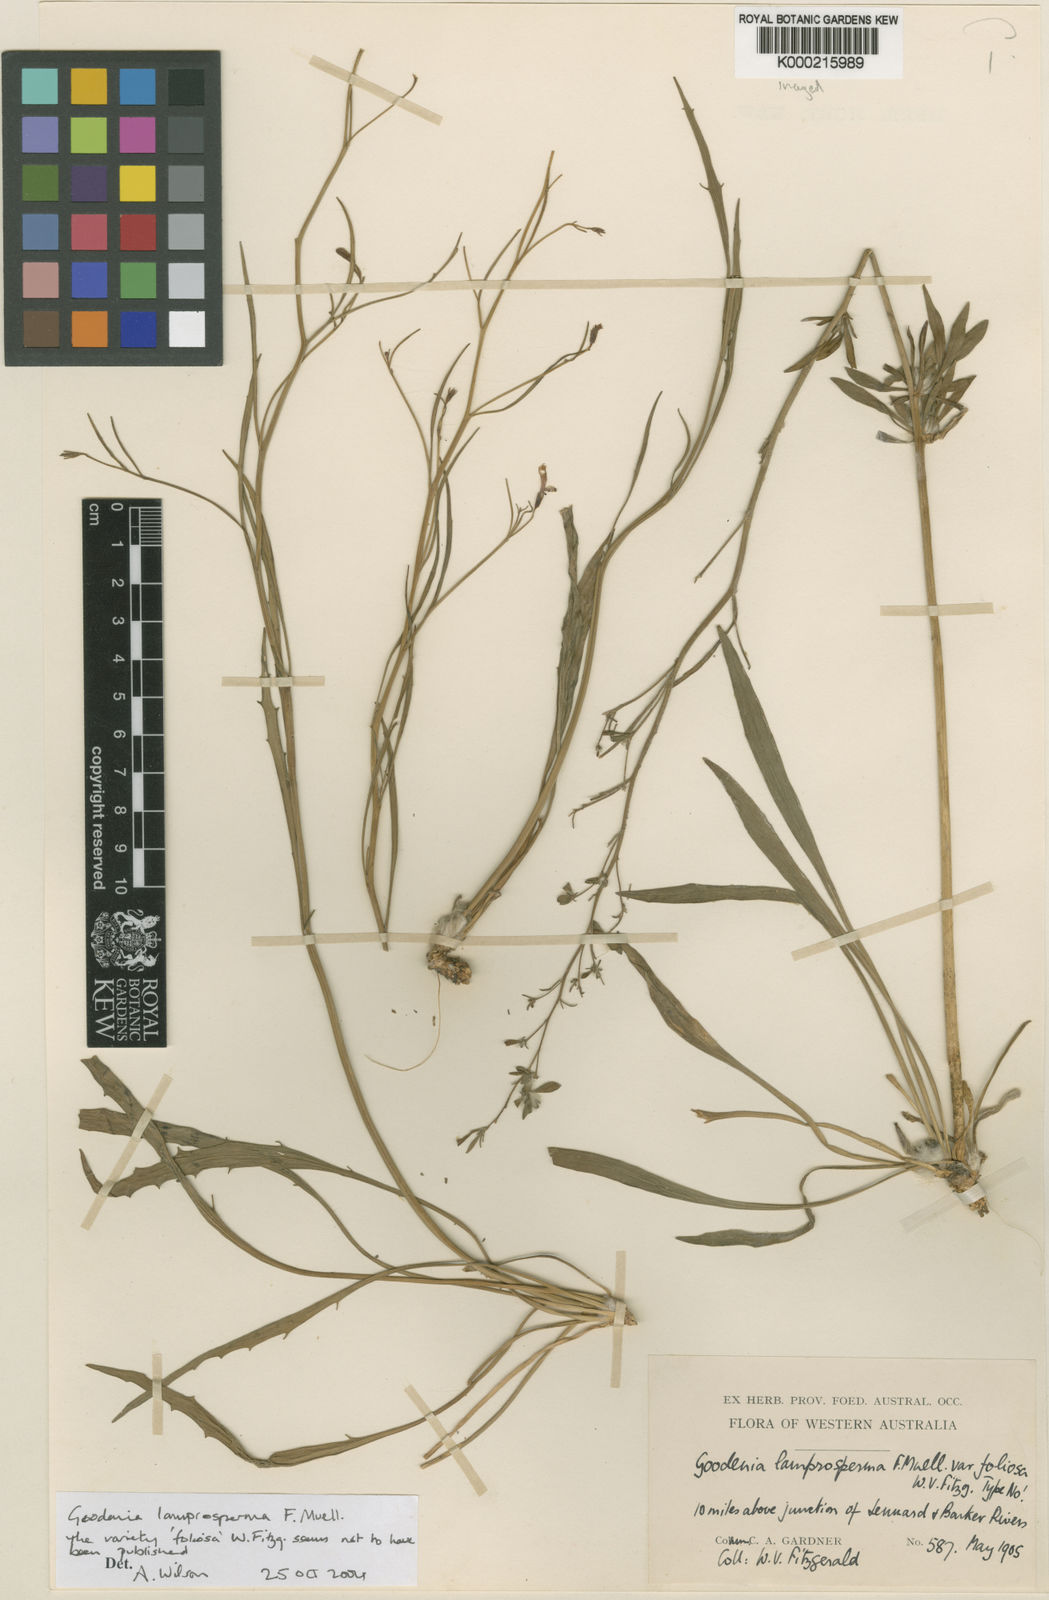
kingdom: Plantae
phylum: Tracheophyta
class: Magnoliopsida
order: Asterales
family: Goodeniaceae
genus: Goodenia
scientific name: Goodenia lamprosperma
